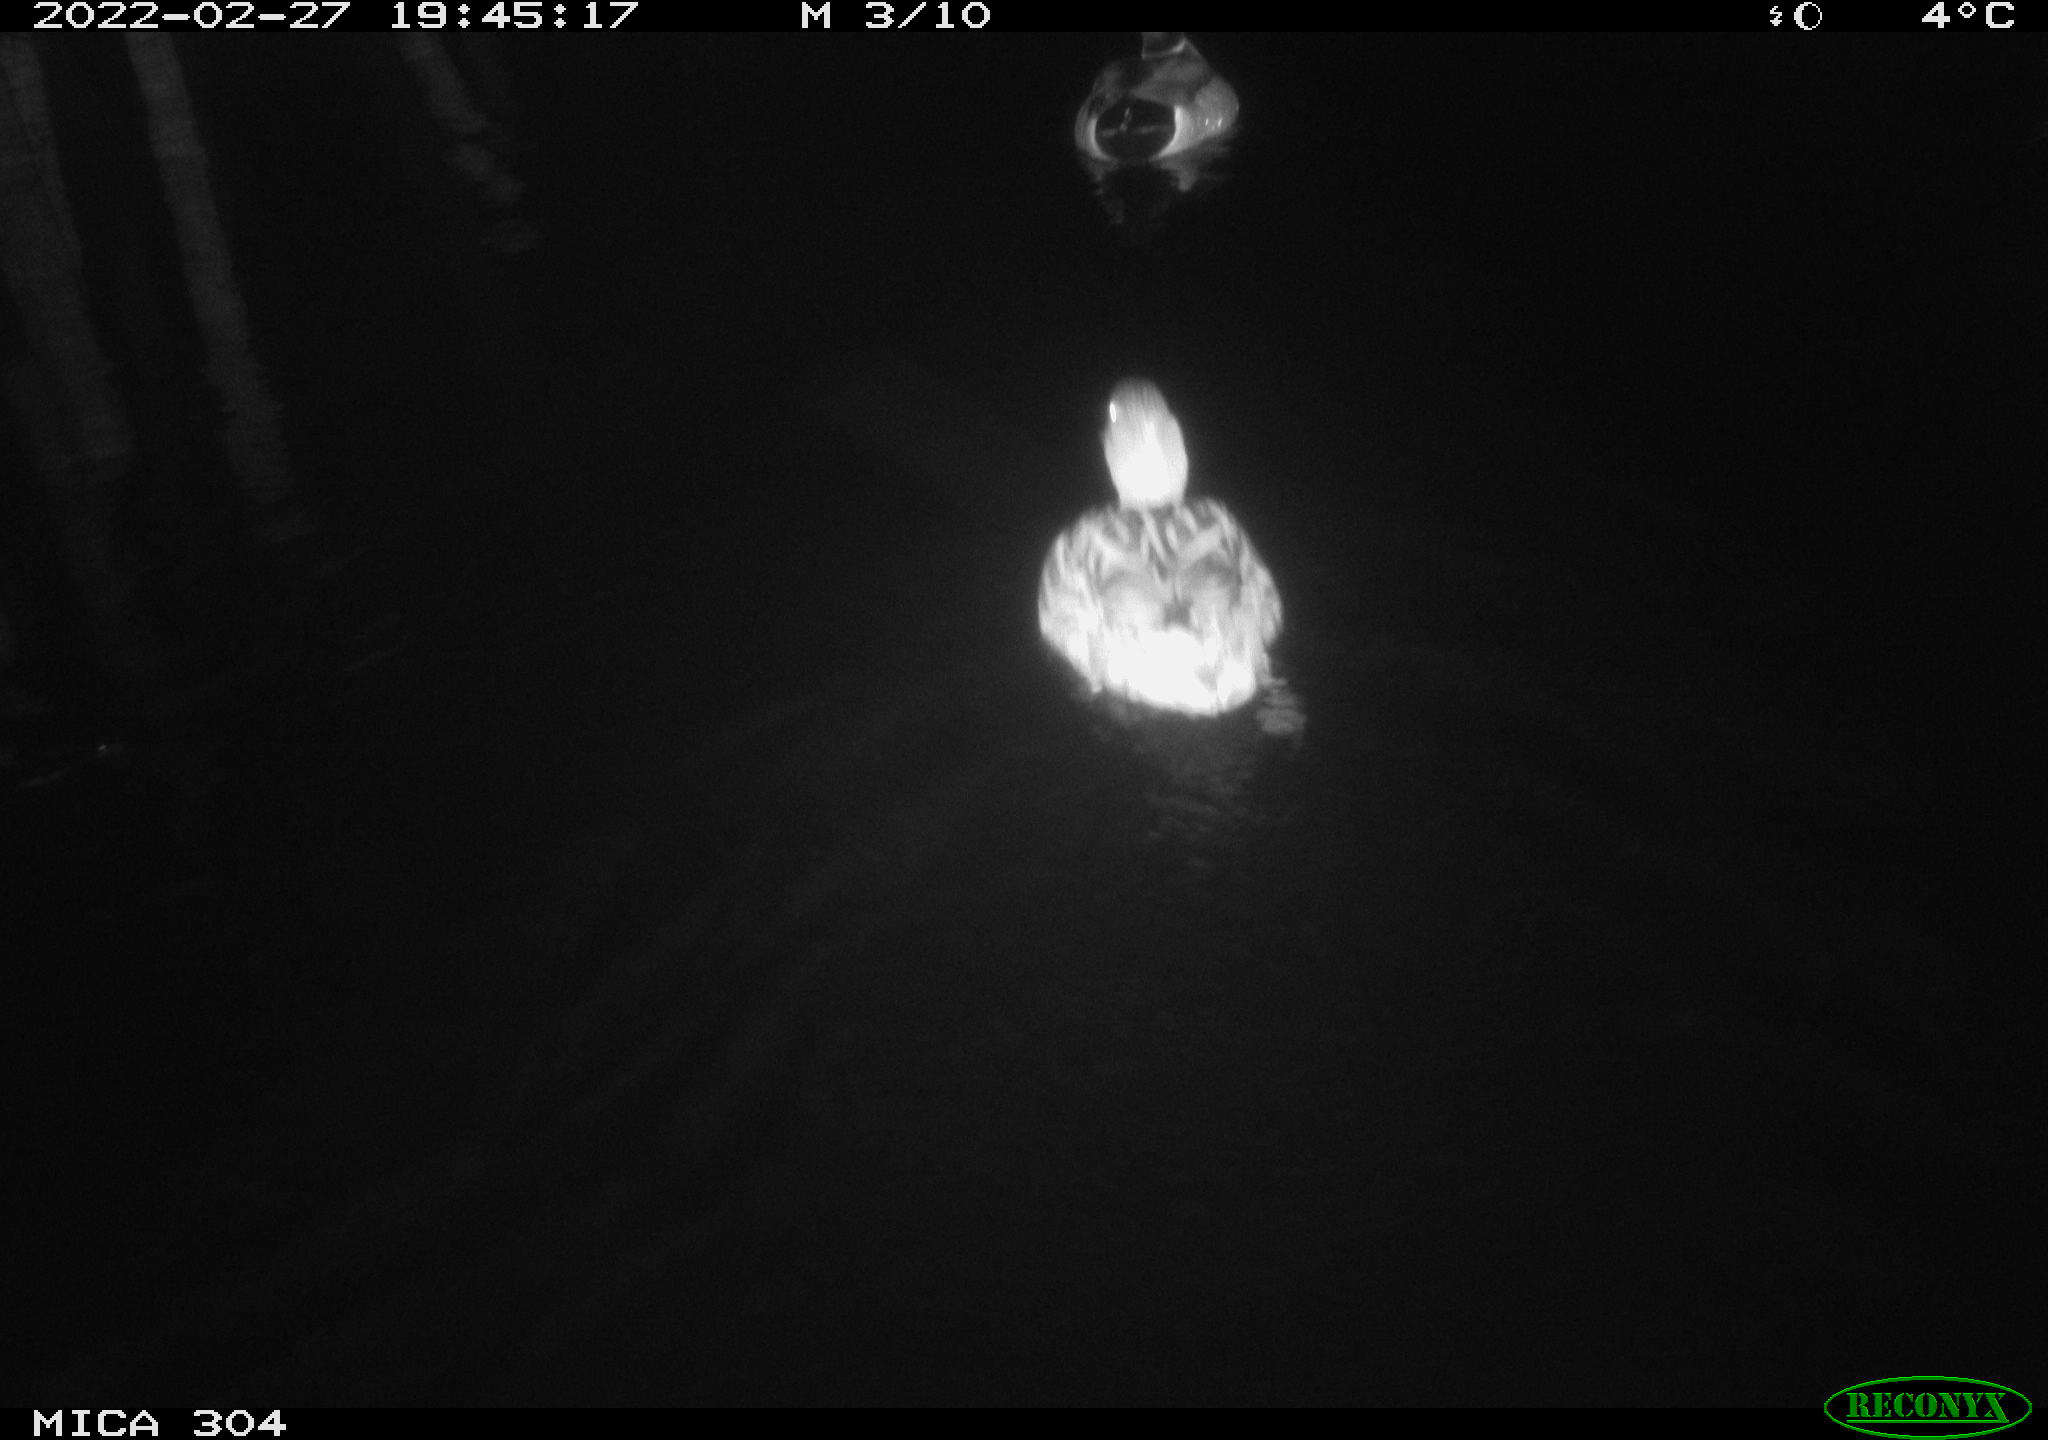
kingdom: Animalia
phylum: Chordata
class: Aves
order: Anseriformes
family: Anatidae
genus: Anas
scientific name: Anas platyrhynchos
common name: Mallard
